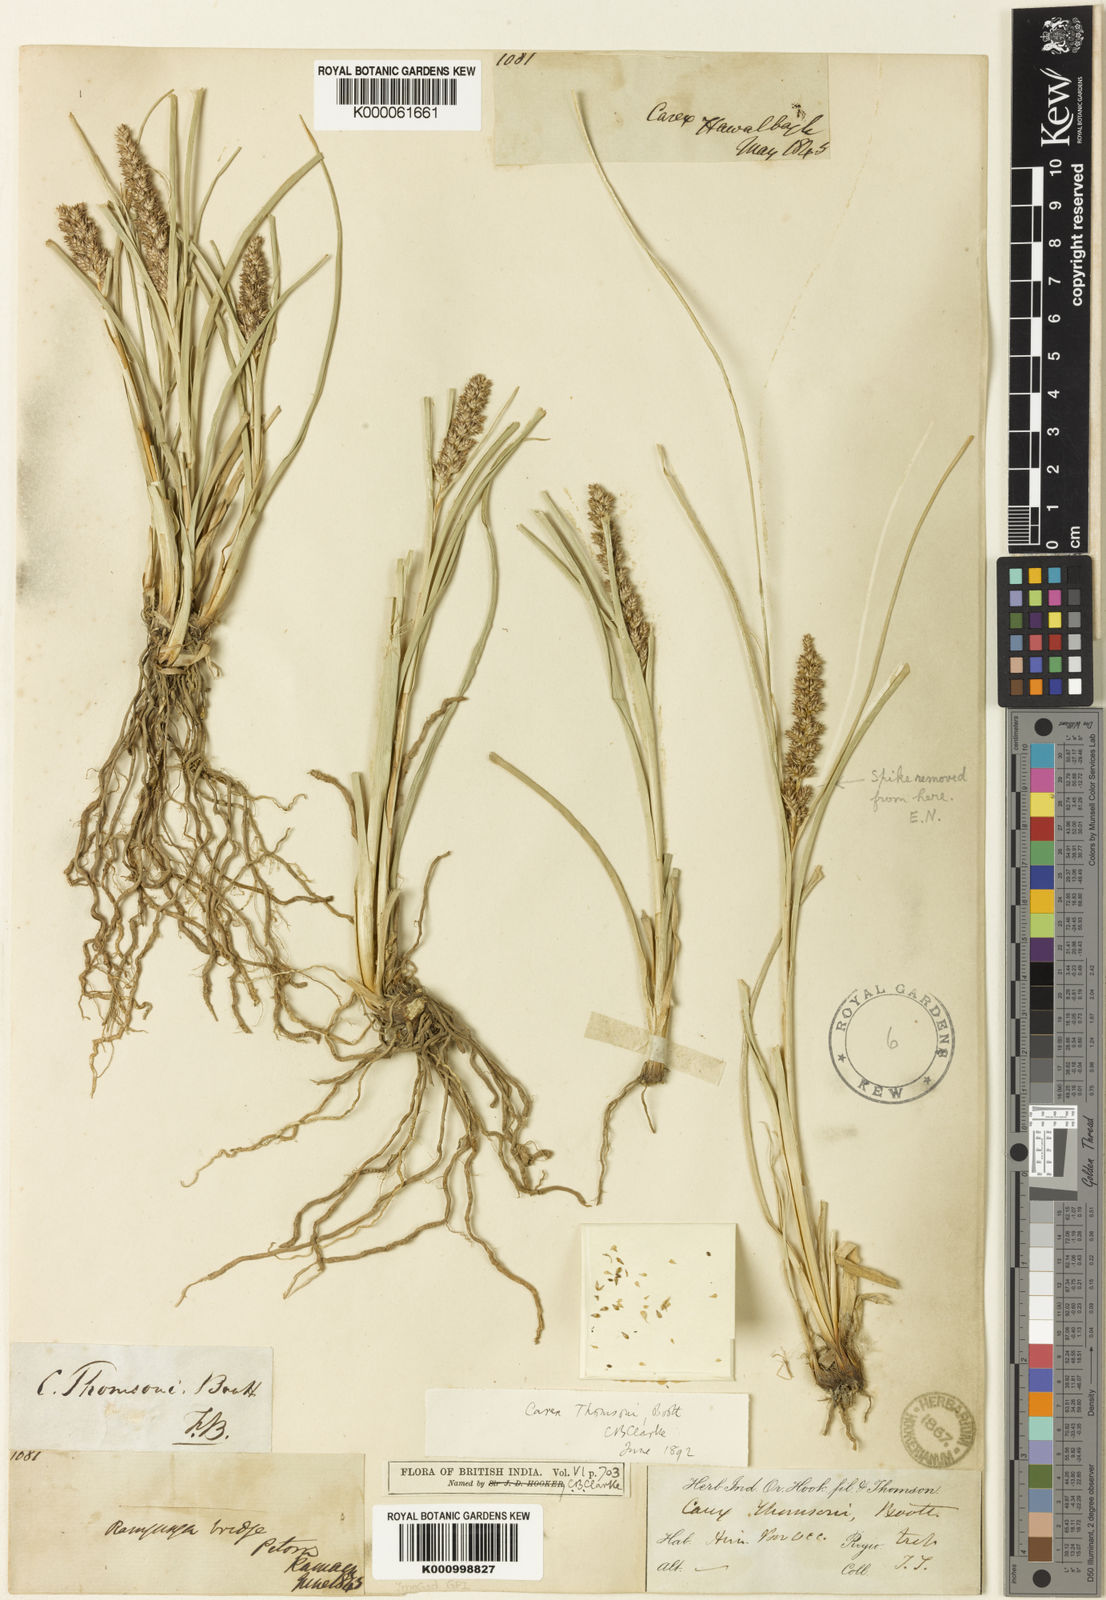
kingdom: Plantae
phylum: Tracheophyta
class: Liliopsida
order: Poales
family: Cyperaceae
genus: Carex
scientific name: Carex thomsonii
